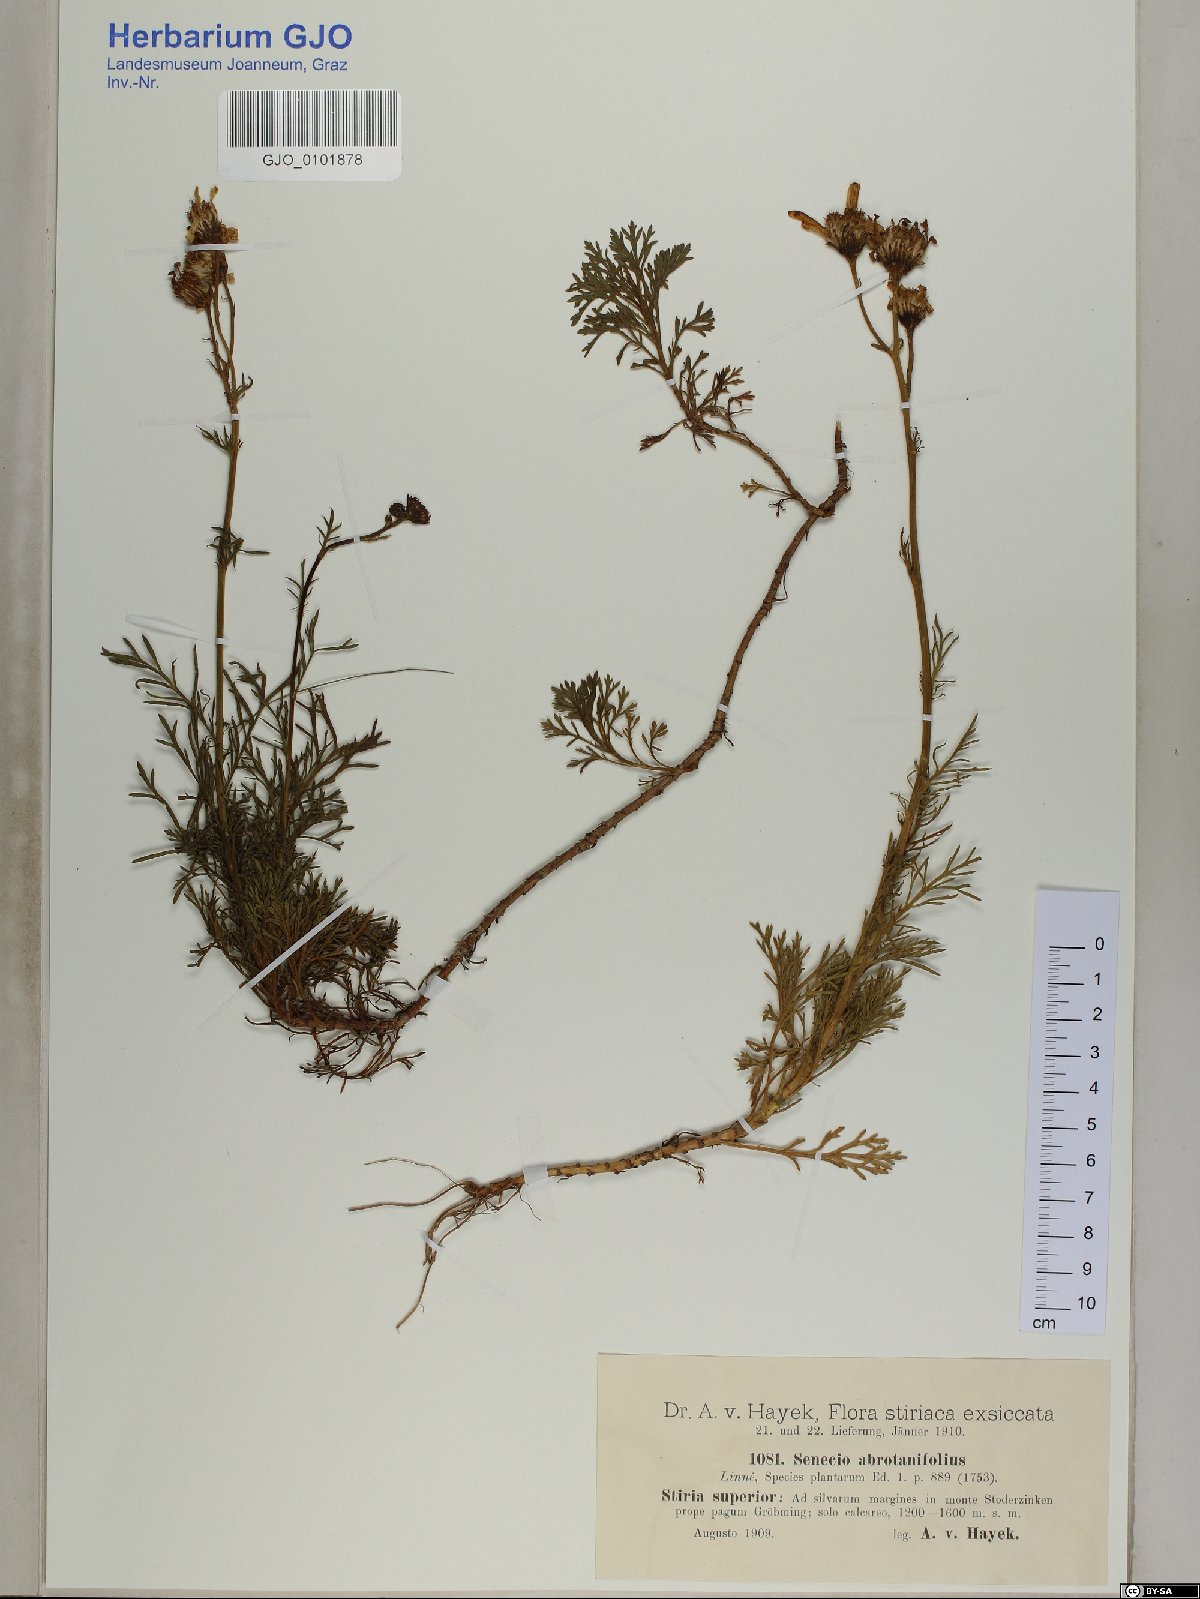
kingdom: Plantae
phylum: Tracheophyta
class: Magnoliopsida
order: Asterales
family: Asteraceae
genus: Jacobaea
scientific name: Jacobaea abrotanifolia
